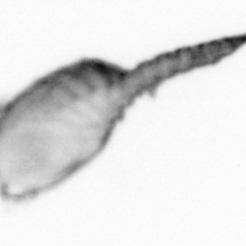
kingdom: Animalia
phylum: Arthropoda
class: Copepoda
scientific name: Copepoda
